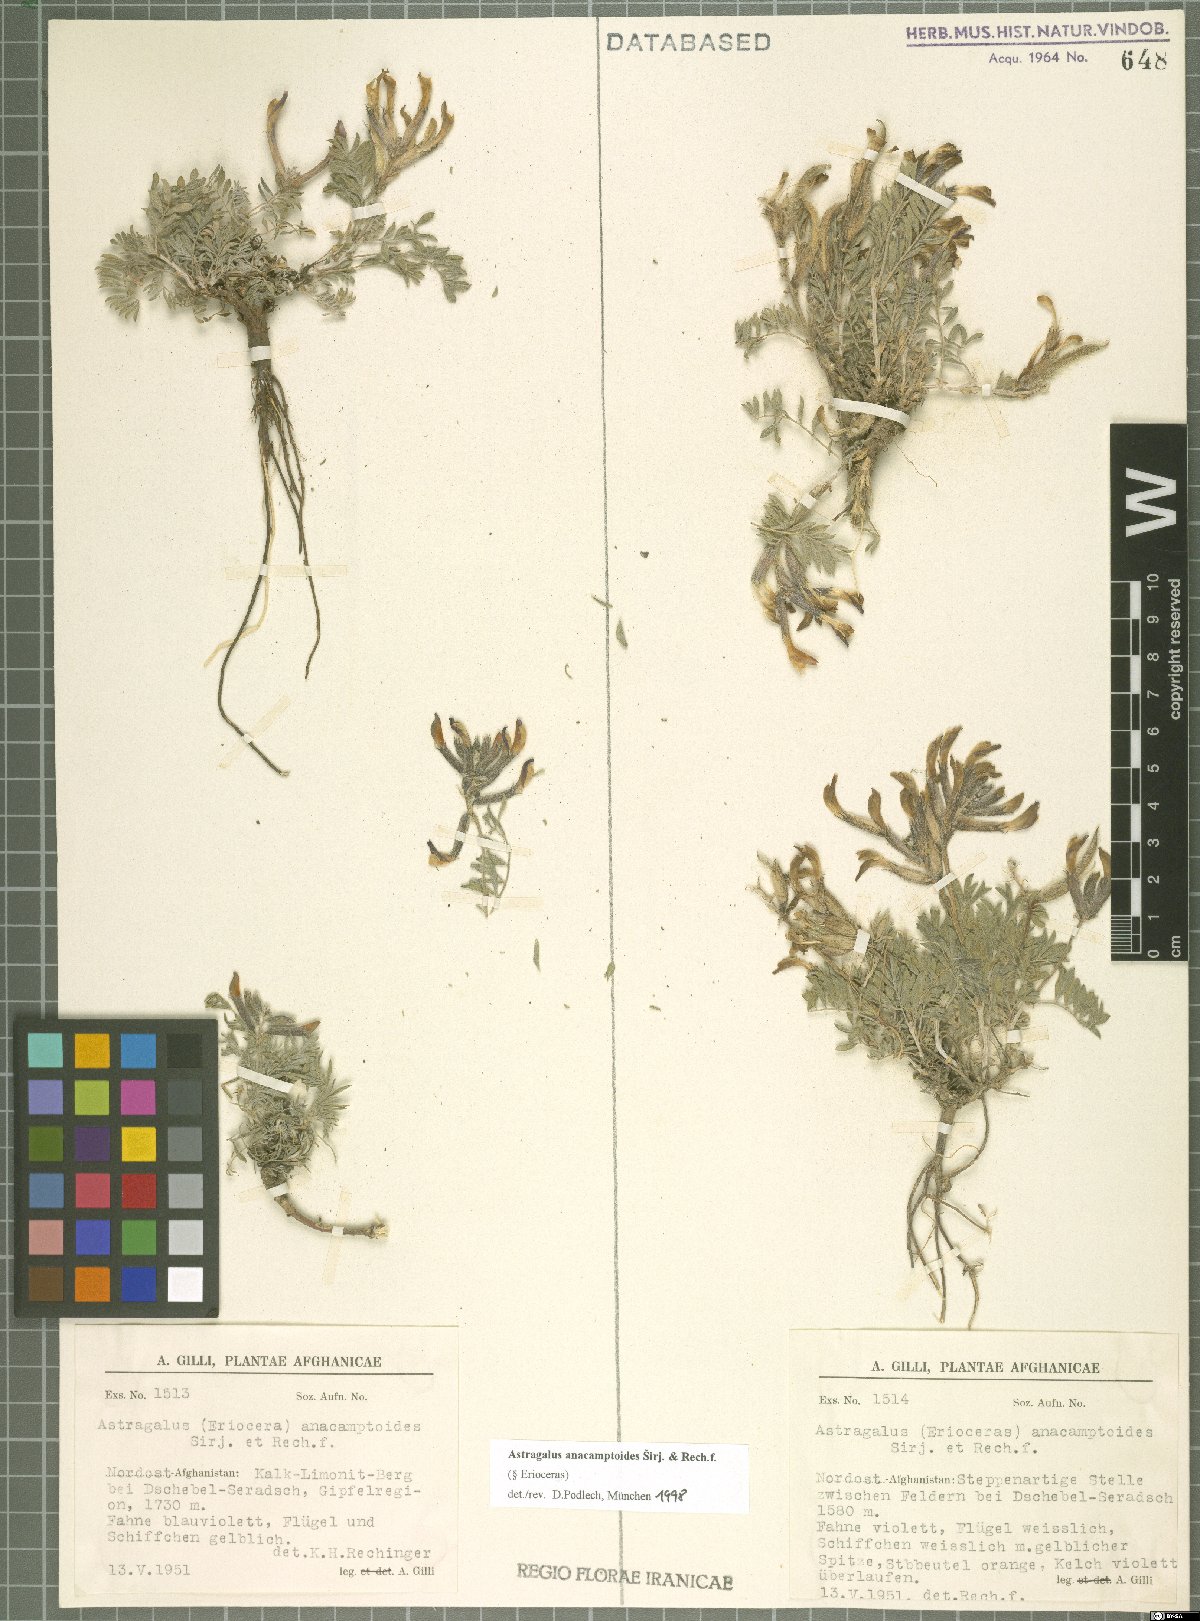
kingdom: Plantae
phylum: Tracheophyta
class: Magnoliopsida
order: Fabales
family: Fabaceae
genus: Astragalus
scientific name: Astragalus anacamptoides
